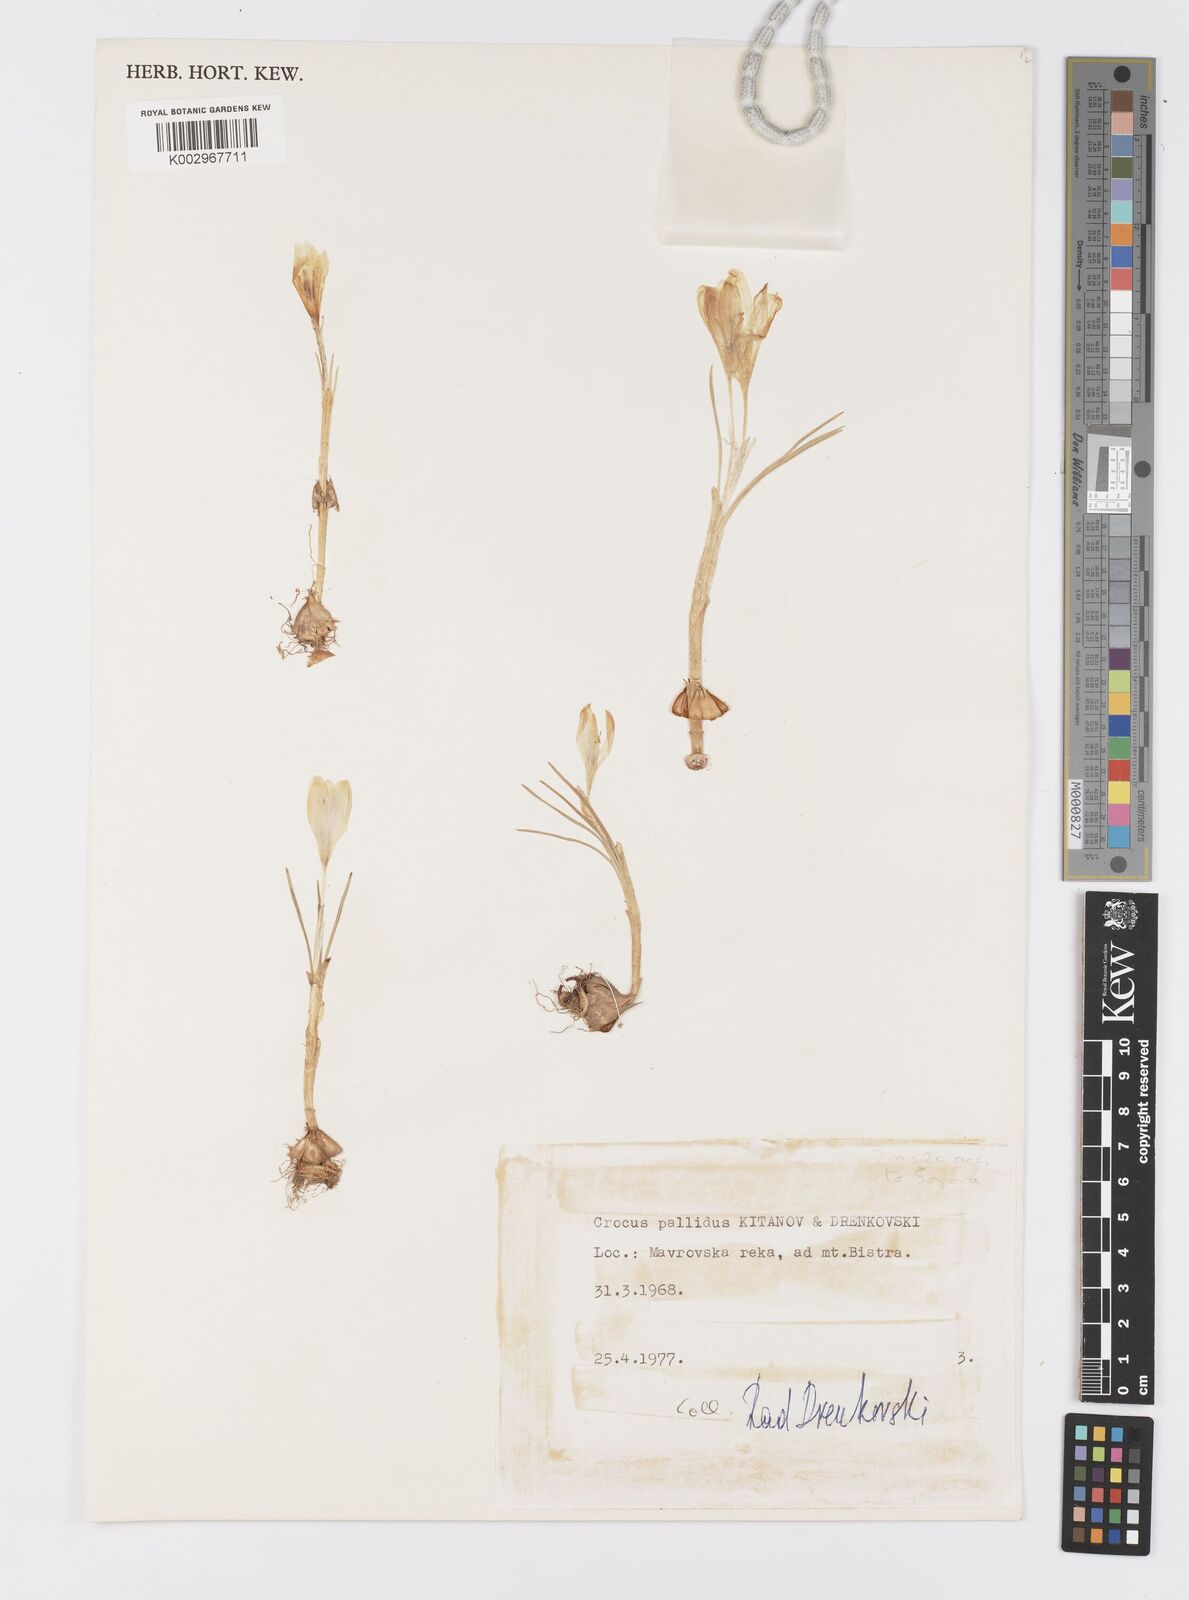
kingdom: Plantae
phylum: Tracheophyta
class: Liliopsida
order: Asparagales
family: Iridaceae
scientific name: Iridaceae
